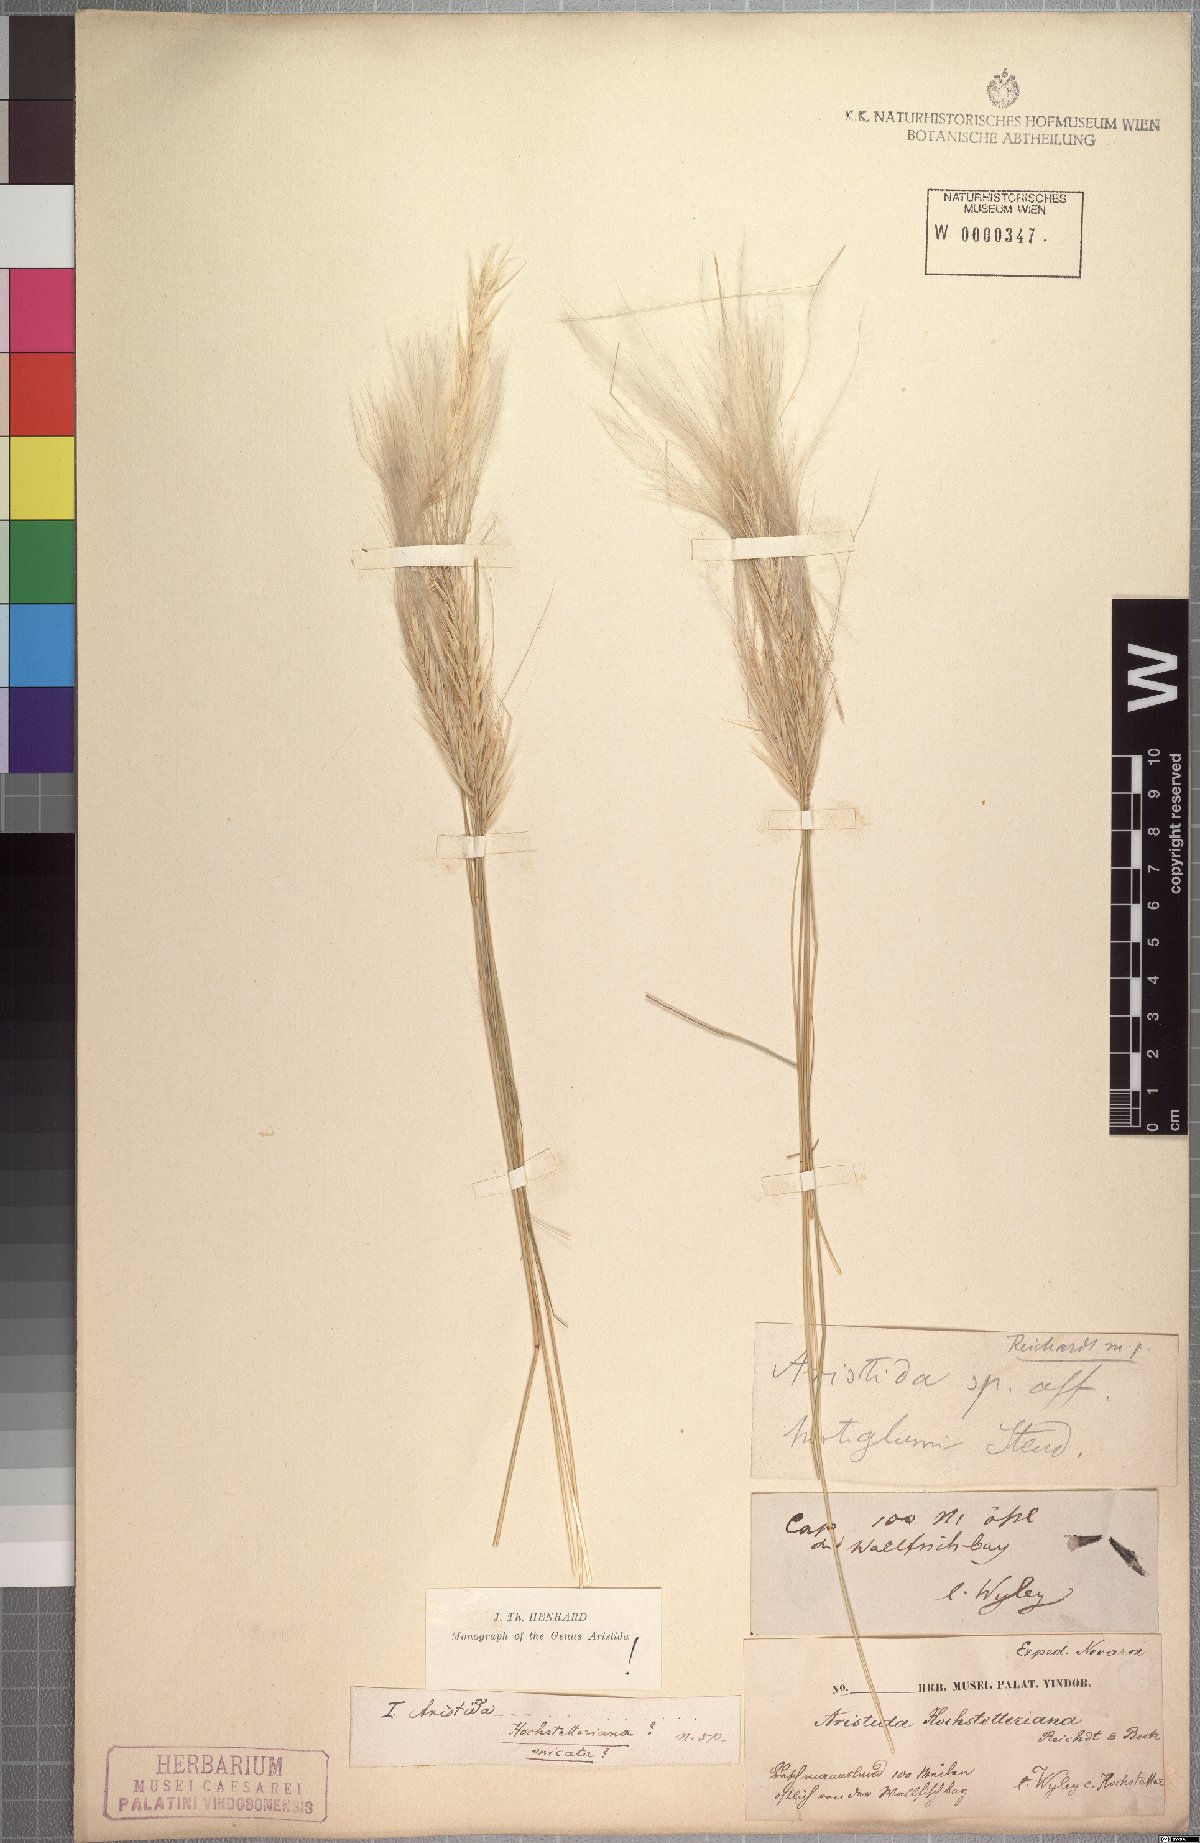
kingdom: Plantae
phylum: Tracheophyta
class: Liliopsida
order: Poales
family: Poaceae
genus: Stipagrostis
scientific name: Stipagrostis hochstetteriana
